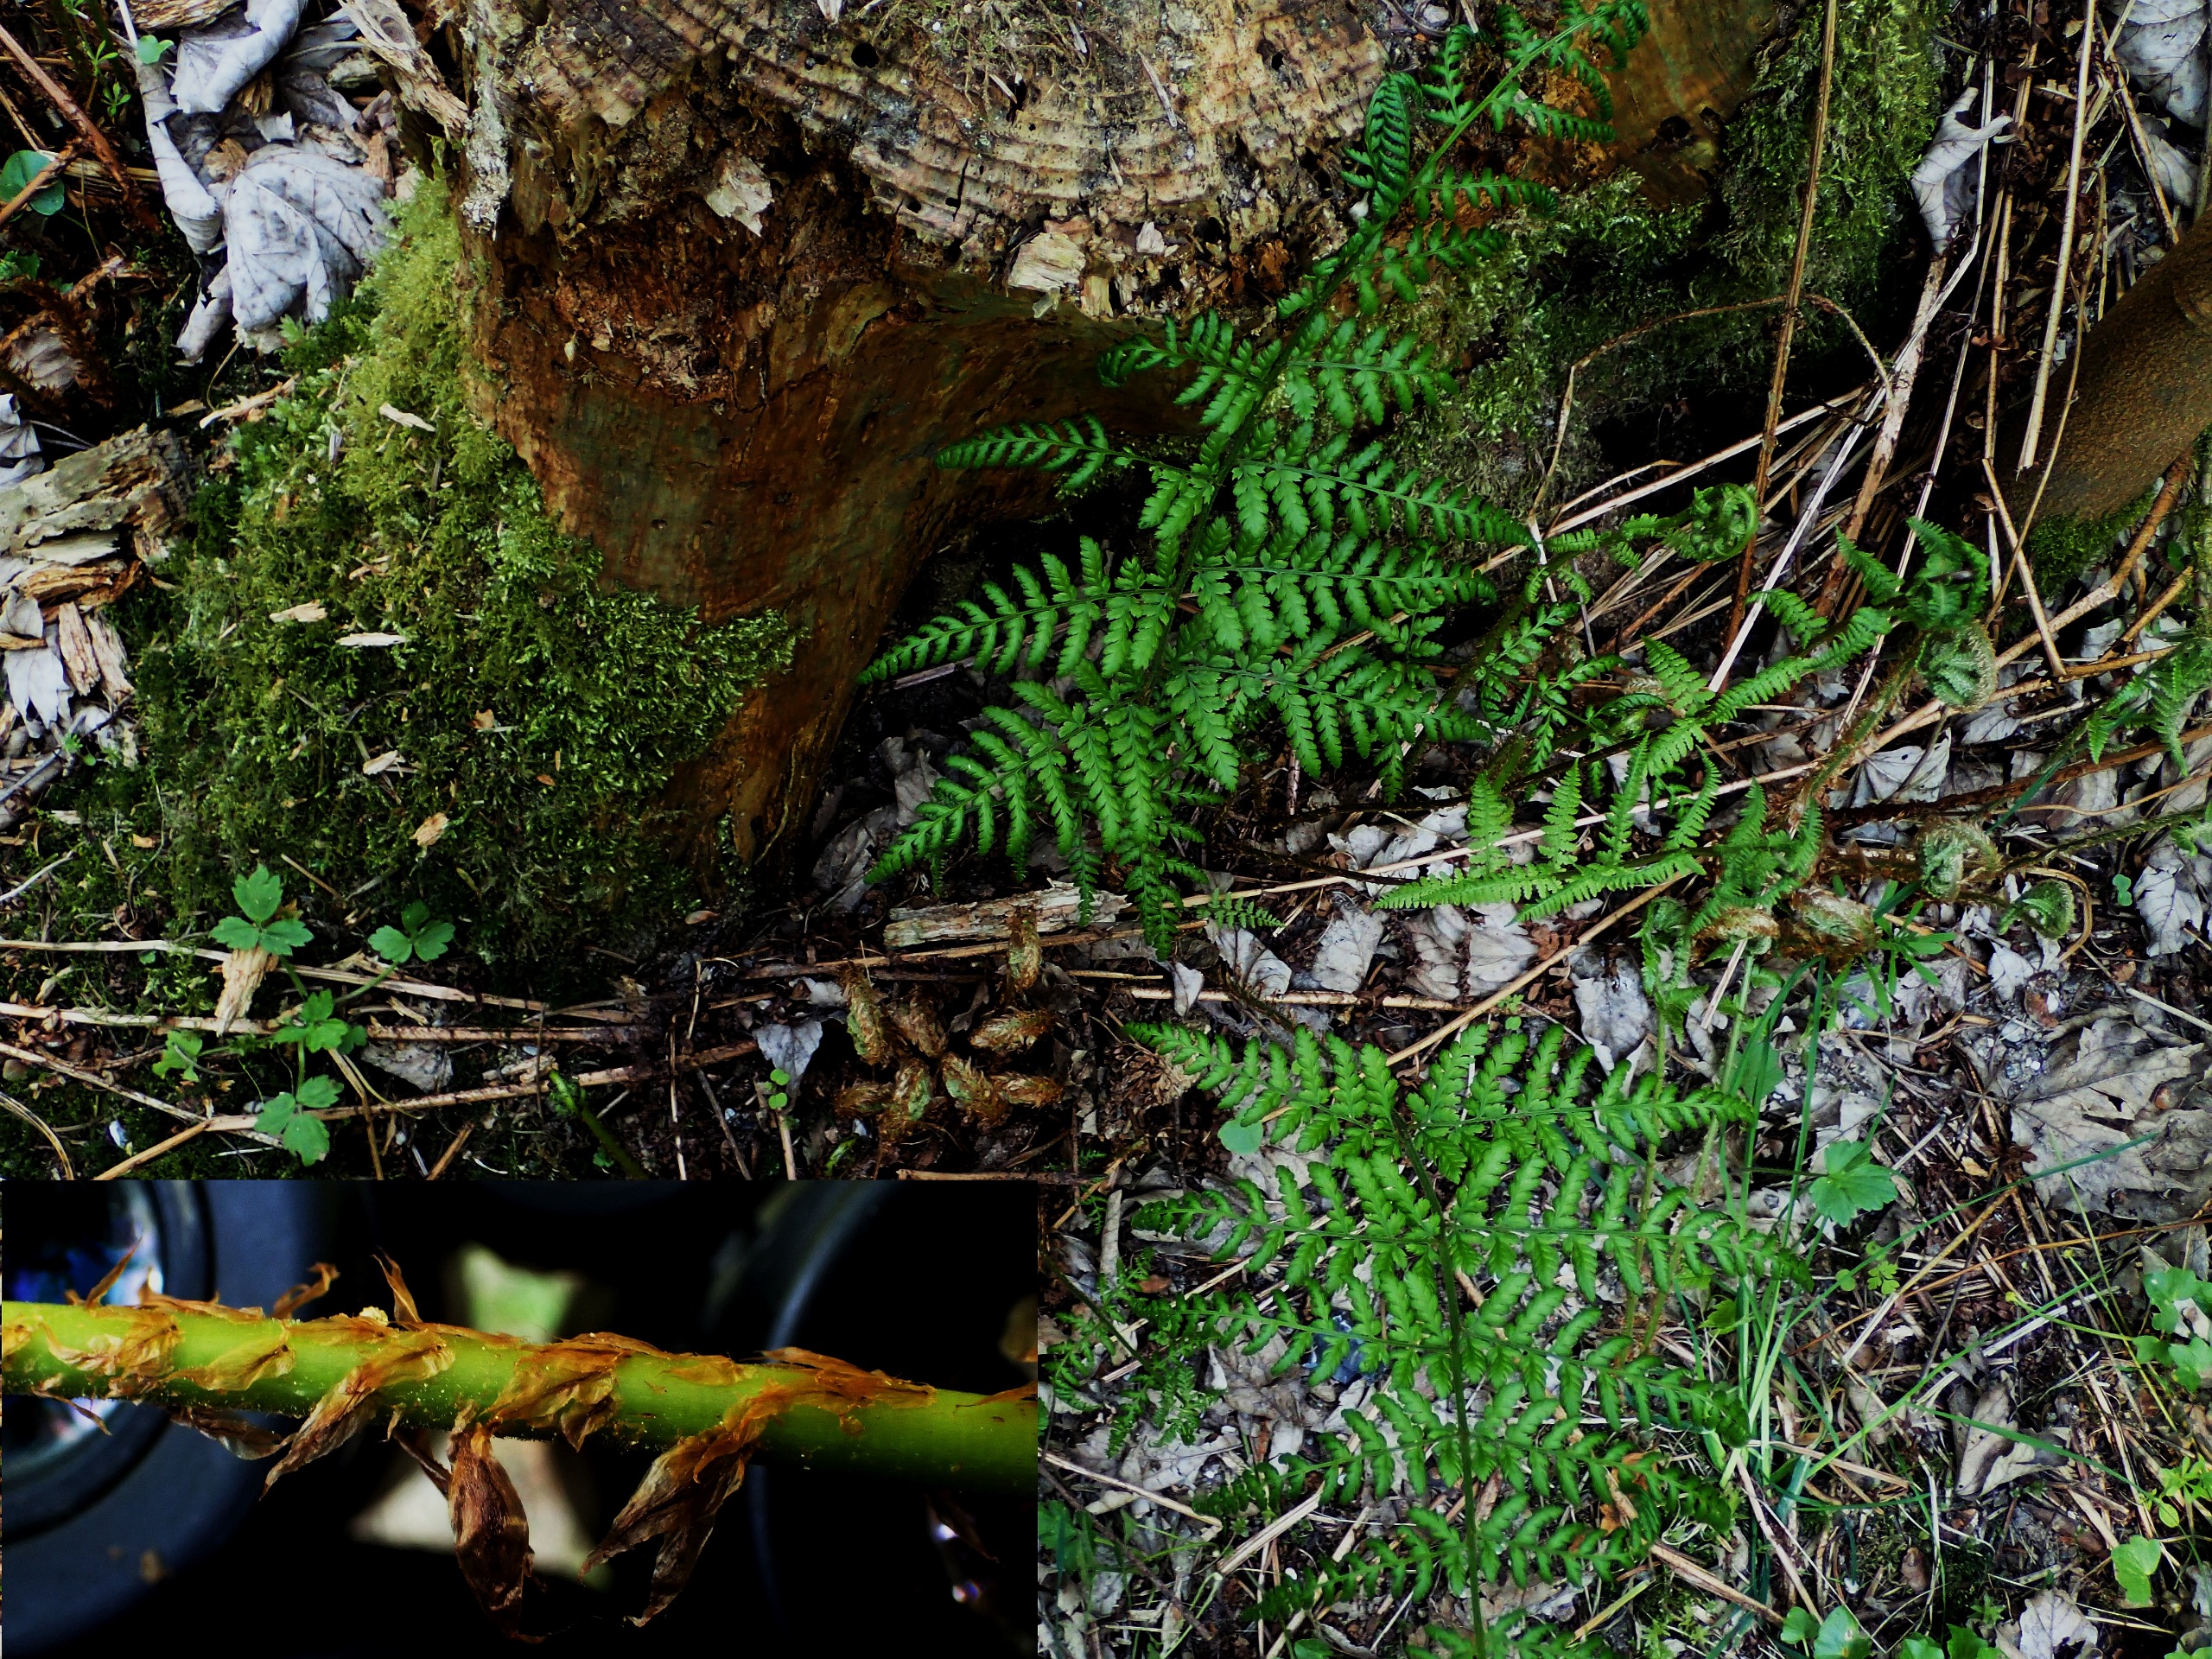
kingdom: Plantae
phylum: Tracheophyta
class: Polypodiopsida
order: Polypodiales
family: Dryopteridaceae
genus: Dryopteris
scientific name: Dryopteris dilatata
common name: Bredbladet mangeløv
